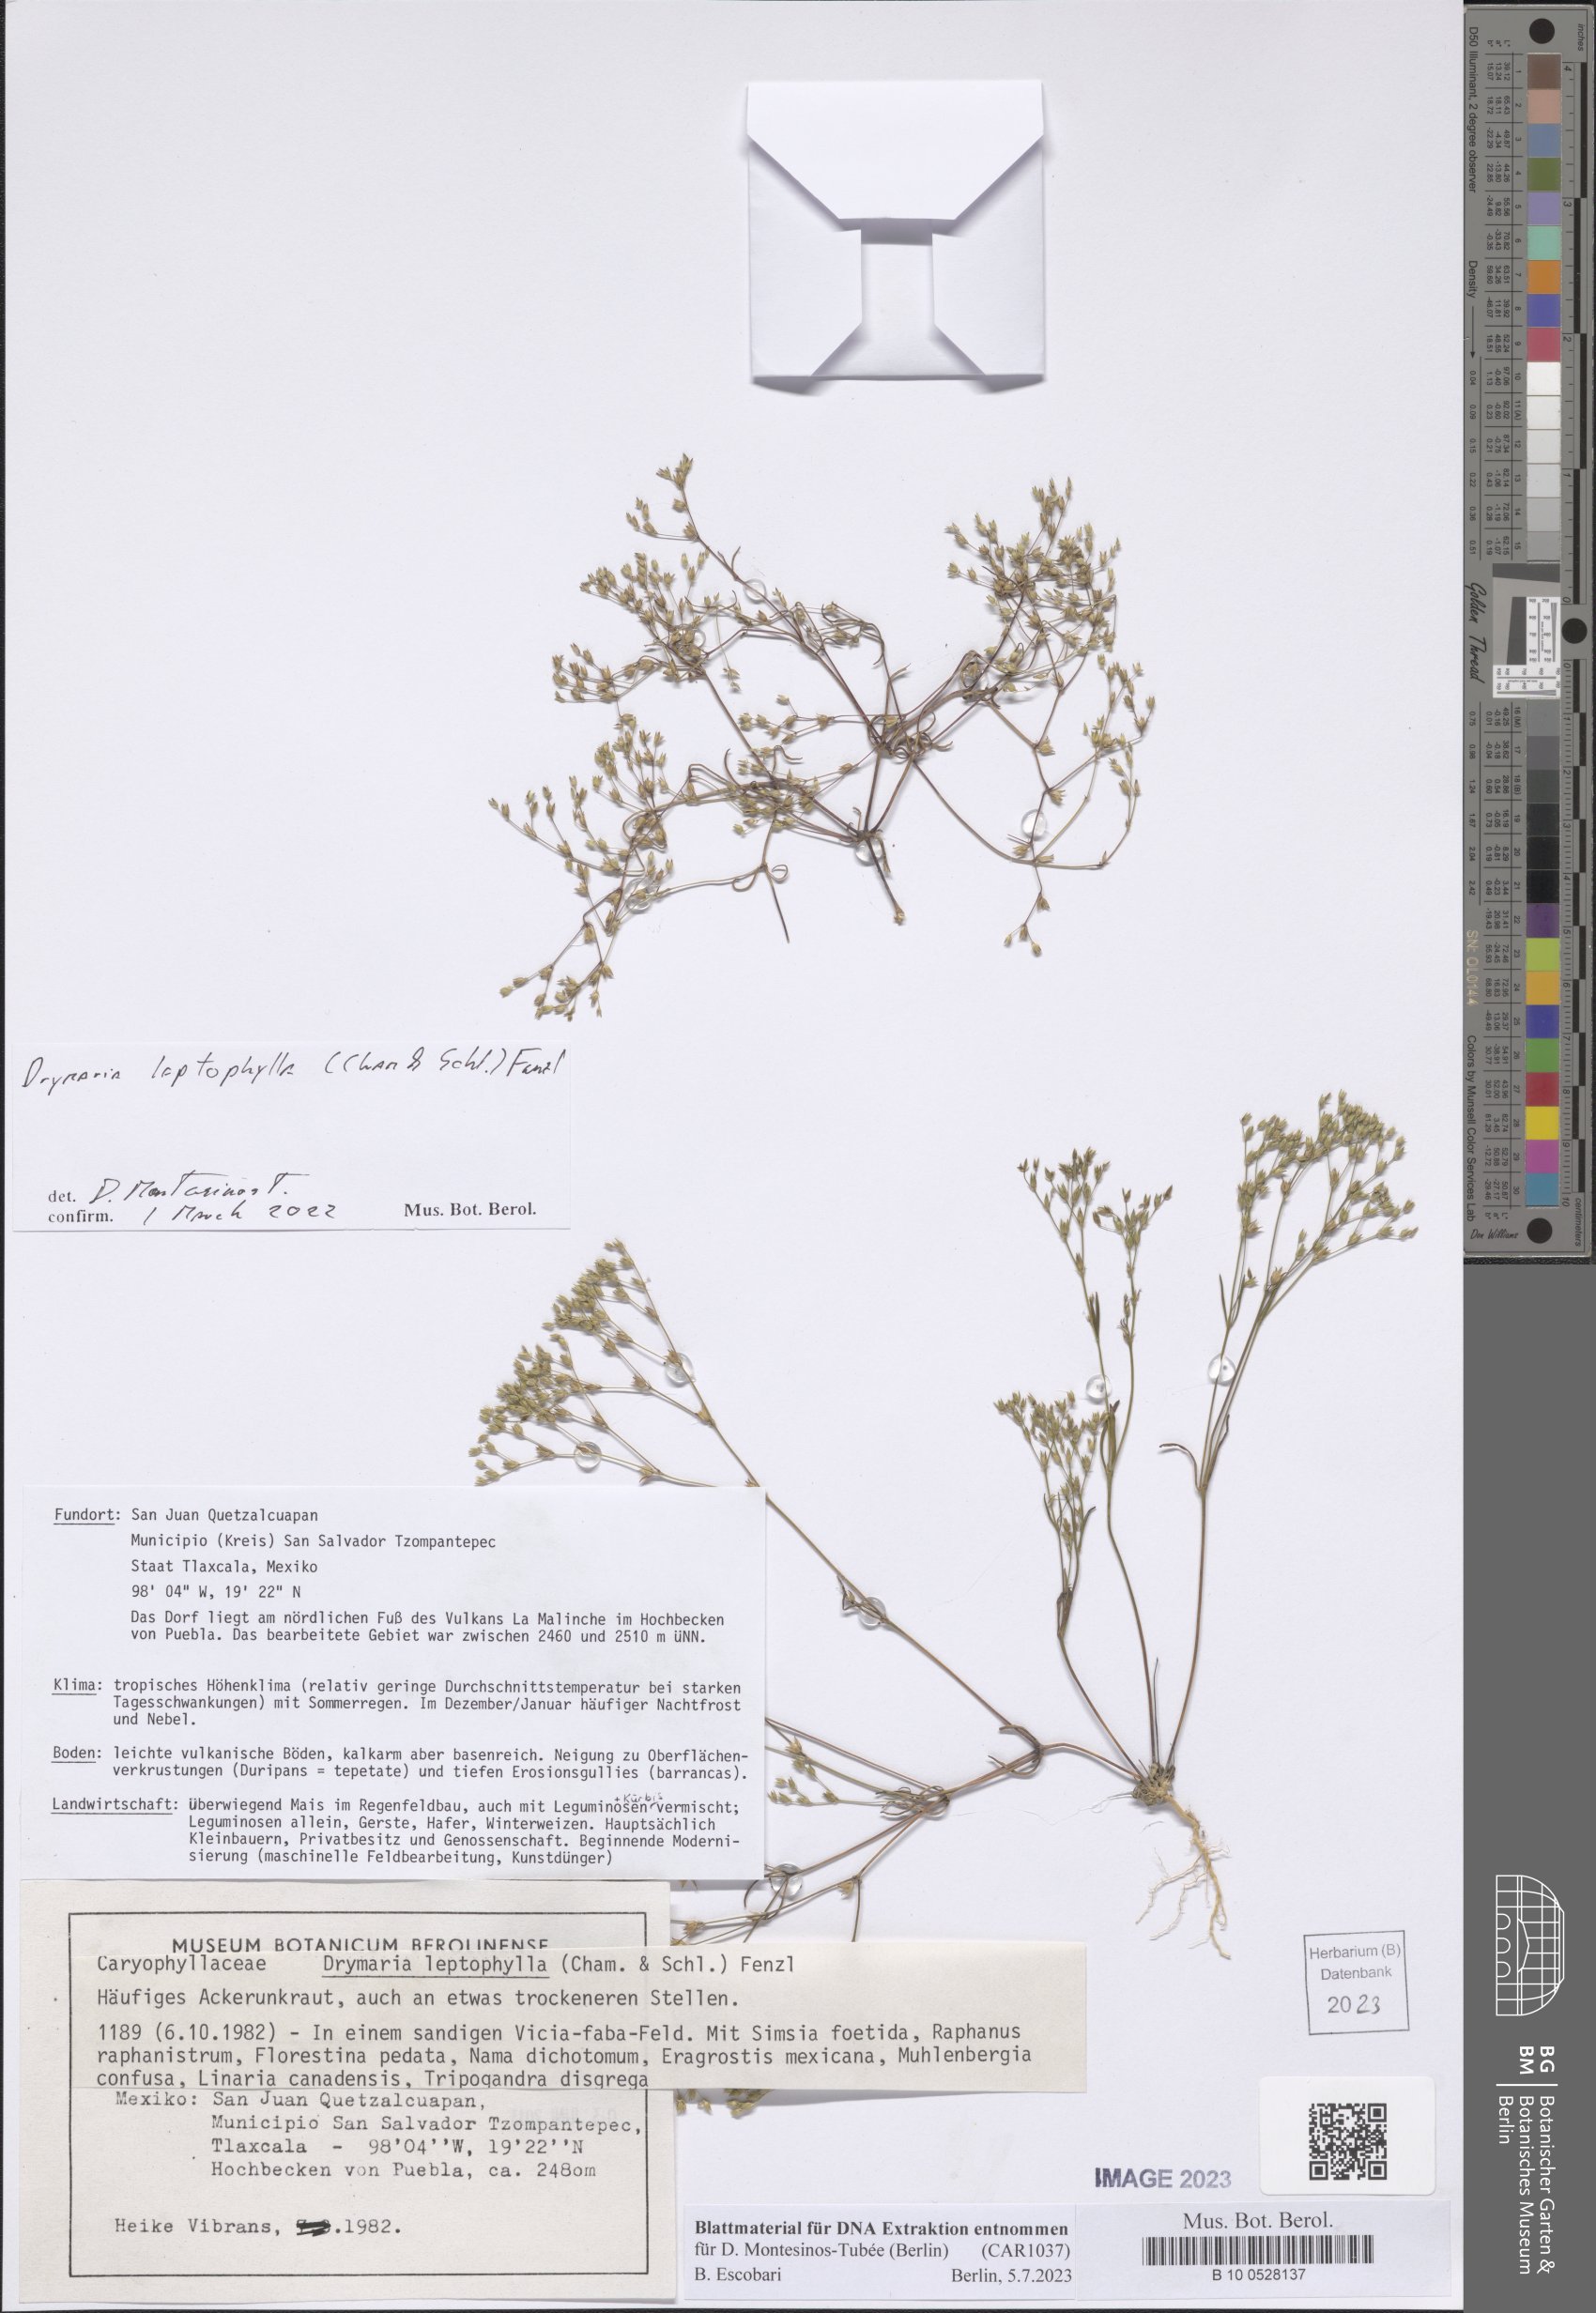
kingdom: Plantae
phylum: Tracheophyta
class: Magnoliopsida
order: Caryophyllales
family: Caryophyllaceae
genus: Drymaria
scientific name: Drymaria leptophylla
